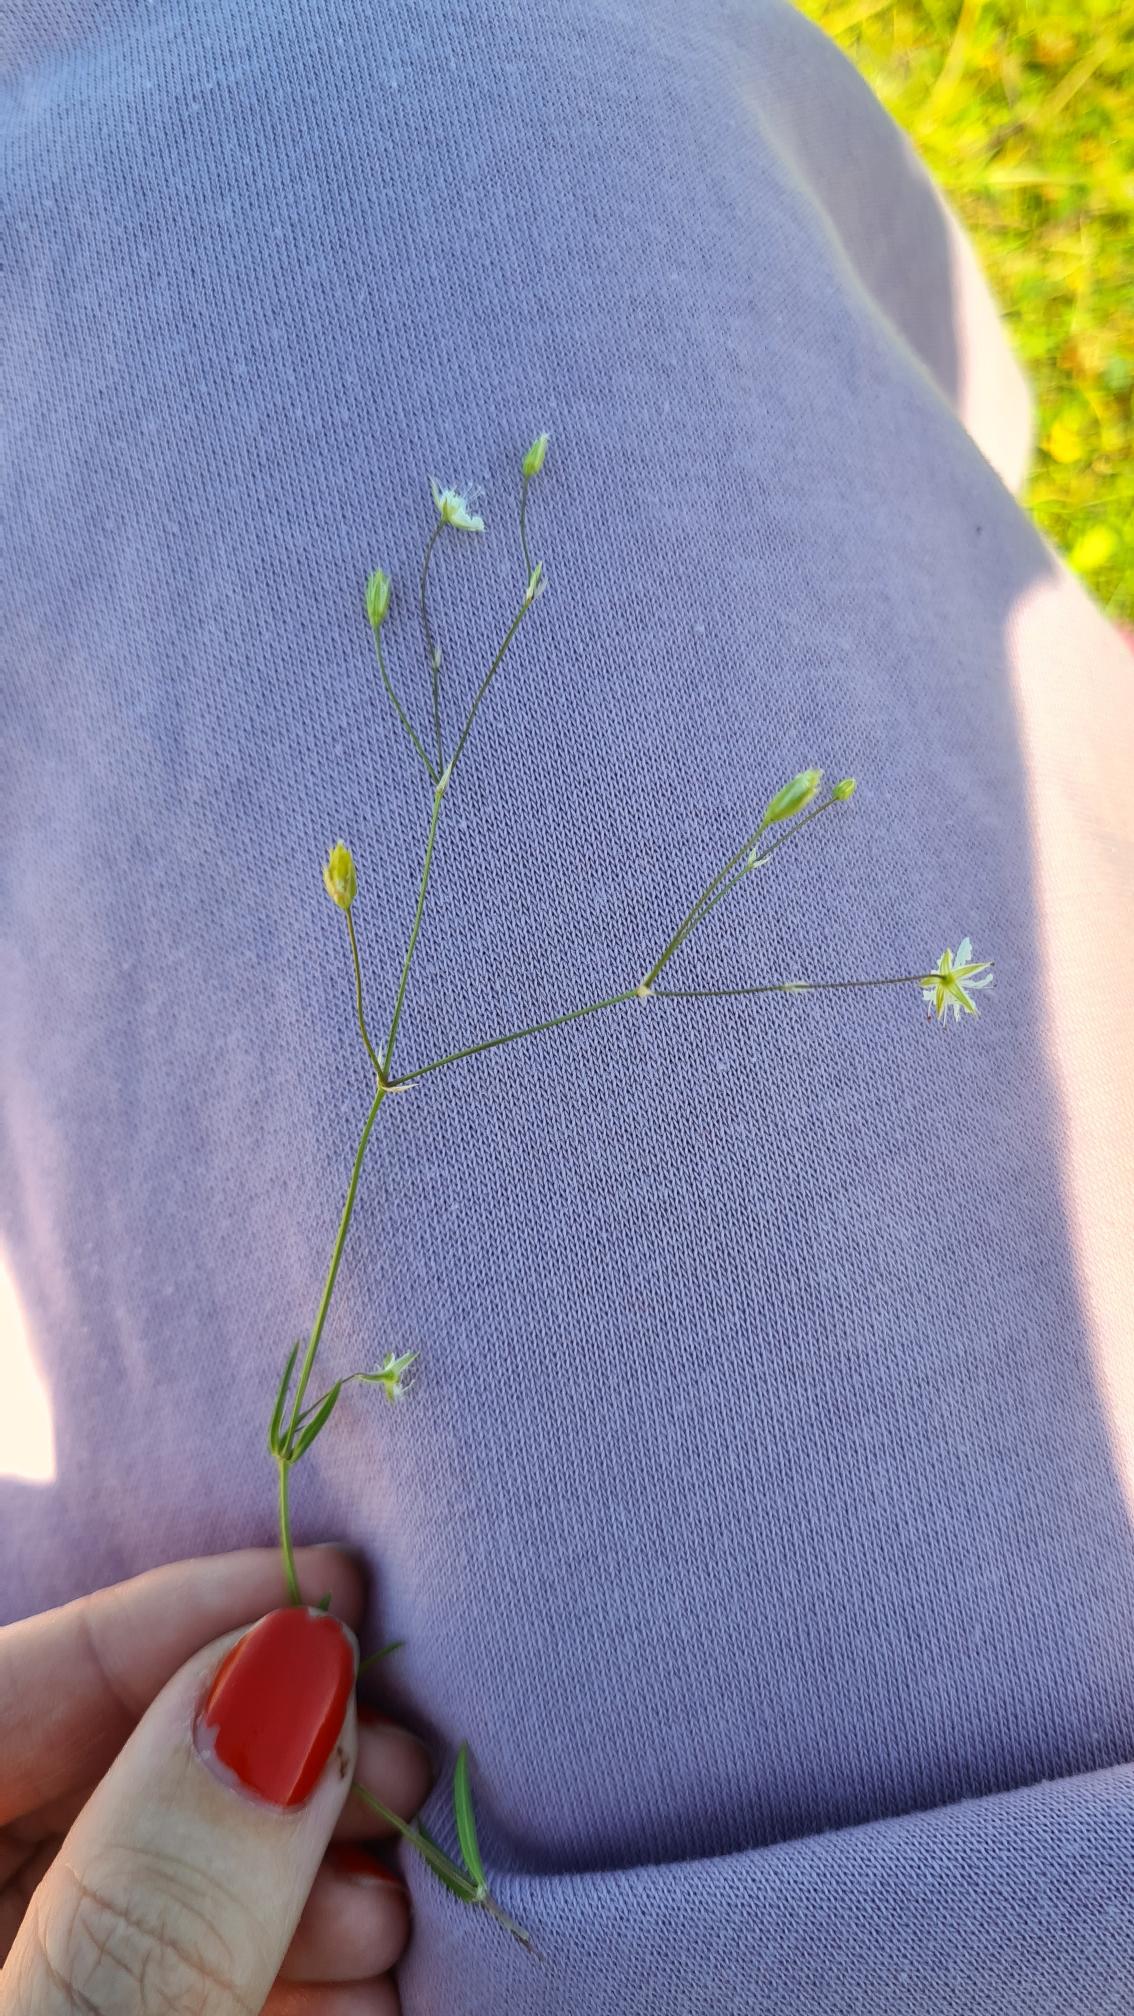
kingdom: Plantae
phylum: Tracheophyta
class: Magnoliopsida
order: Caryophyllales
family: Caryophyllaceae
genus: Stellaria
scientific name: Stellaria graminea
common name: Græsbladet fladstjerne
